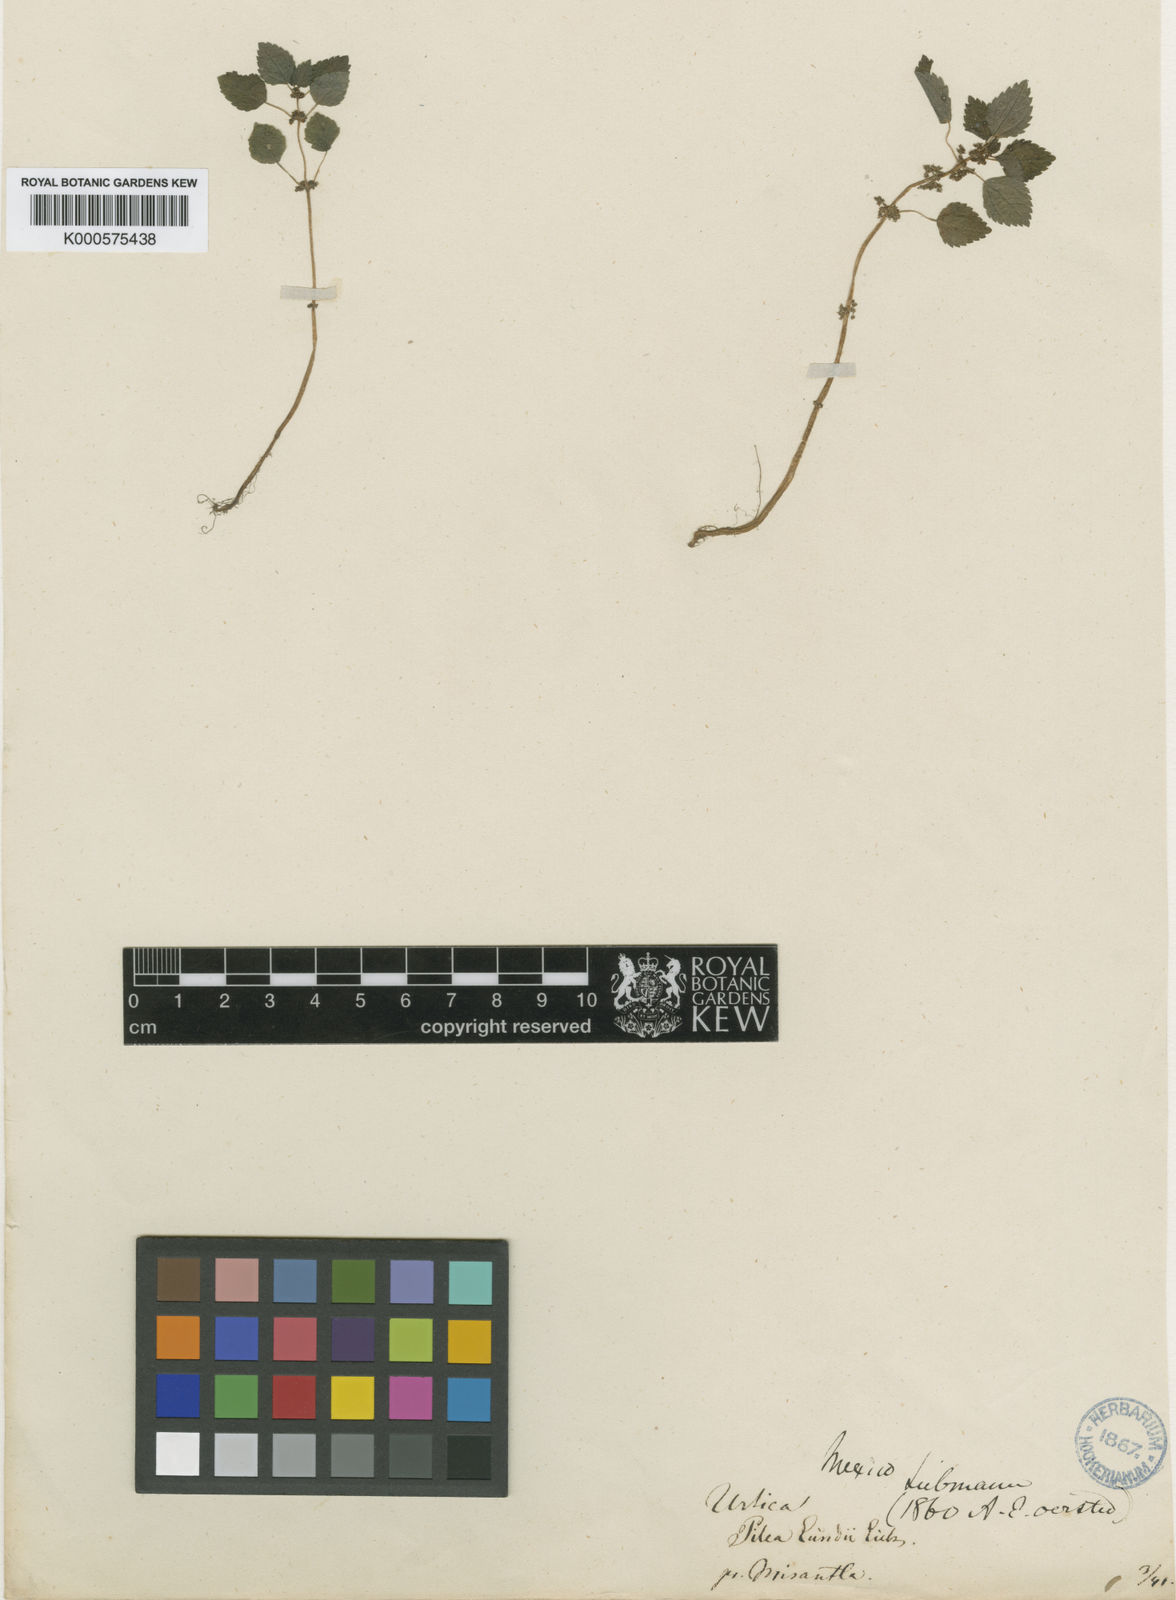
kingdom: Plantae
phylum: Tracheophyta
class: Magnoliopsida
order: Rosales
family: Urticaceae
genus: Pilea
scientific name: Pilea hyalina
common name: Virdrillo
